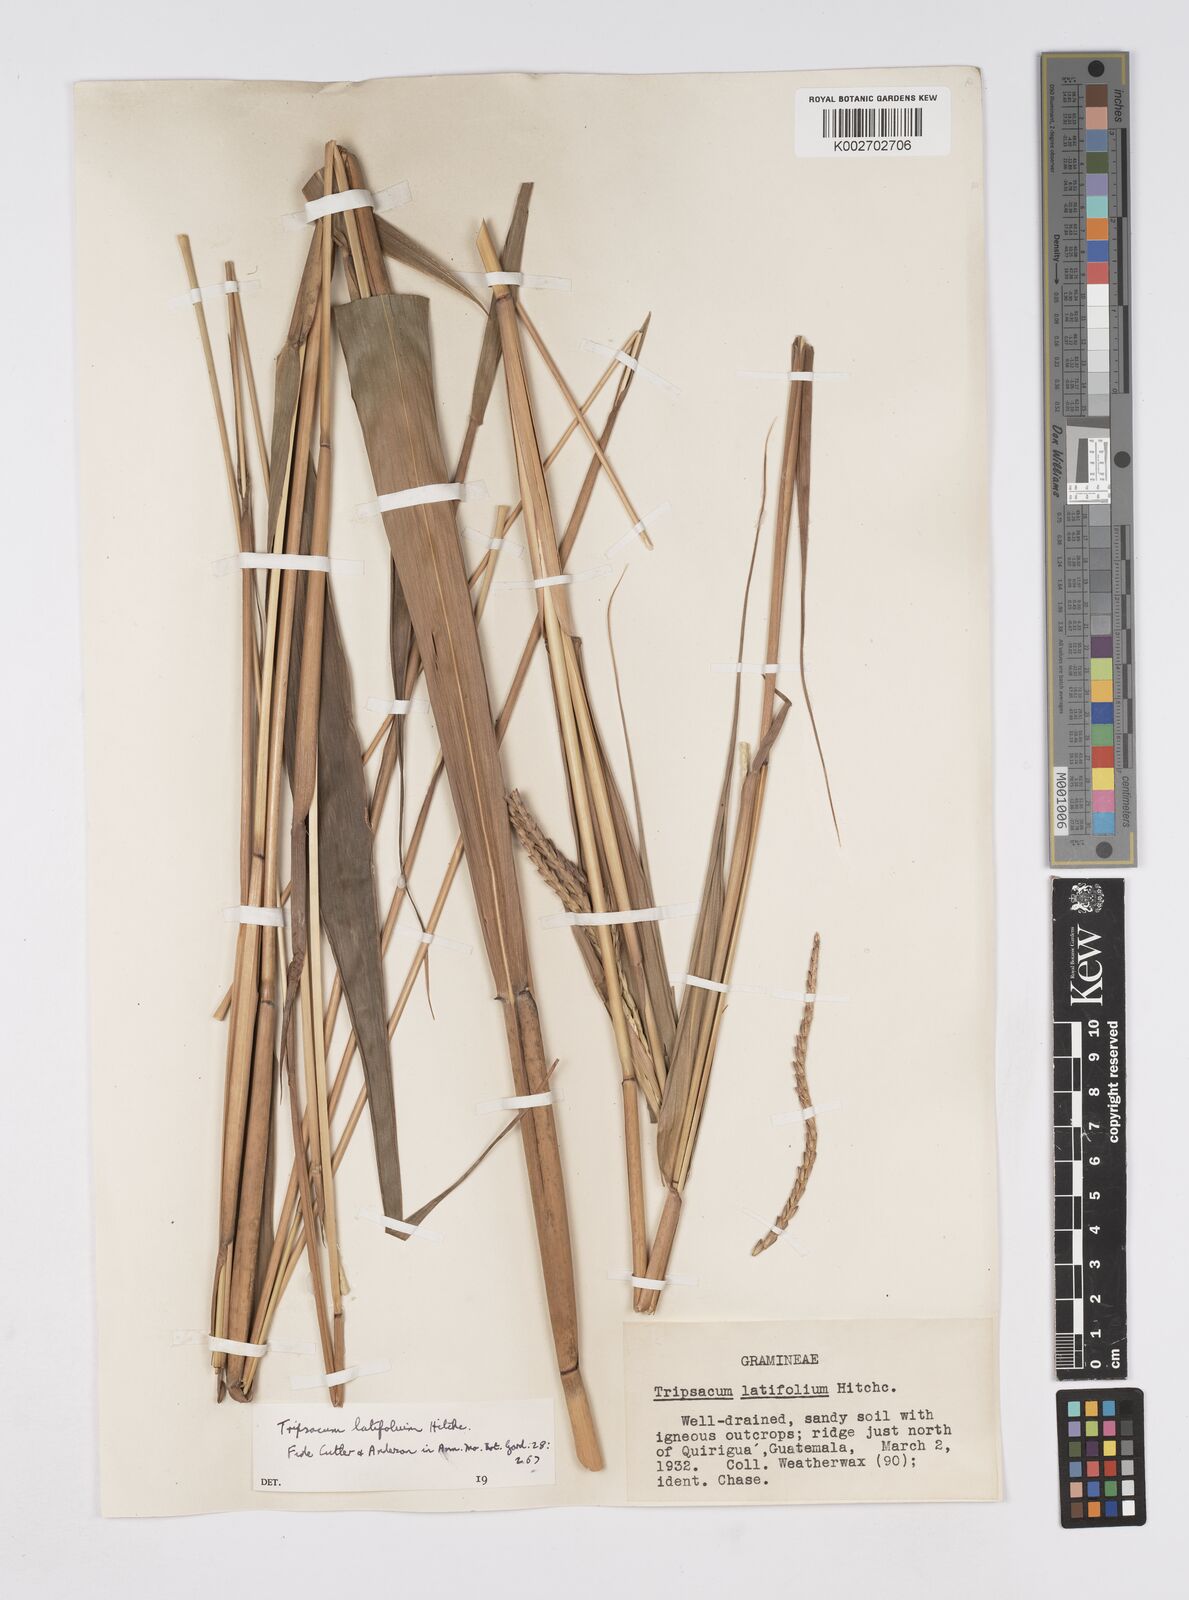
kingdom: Plantae
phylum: Tracheophyta
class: Liliopsida
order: Poales
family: Poaceae
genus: Tripsacum
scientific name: Tripsacum latifolium
